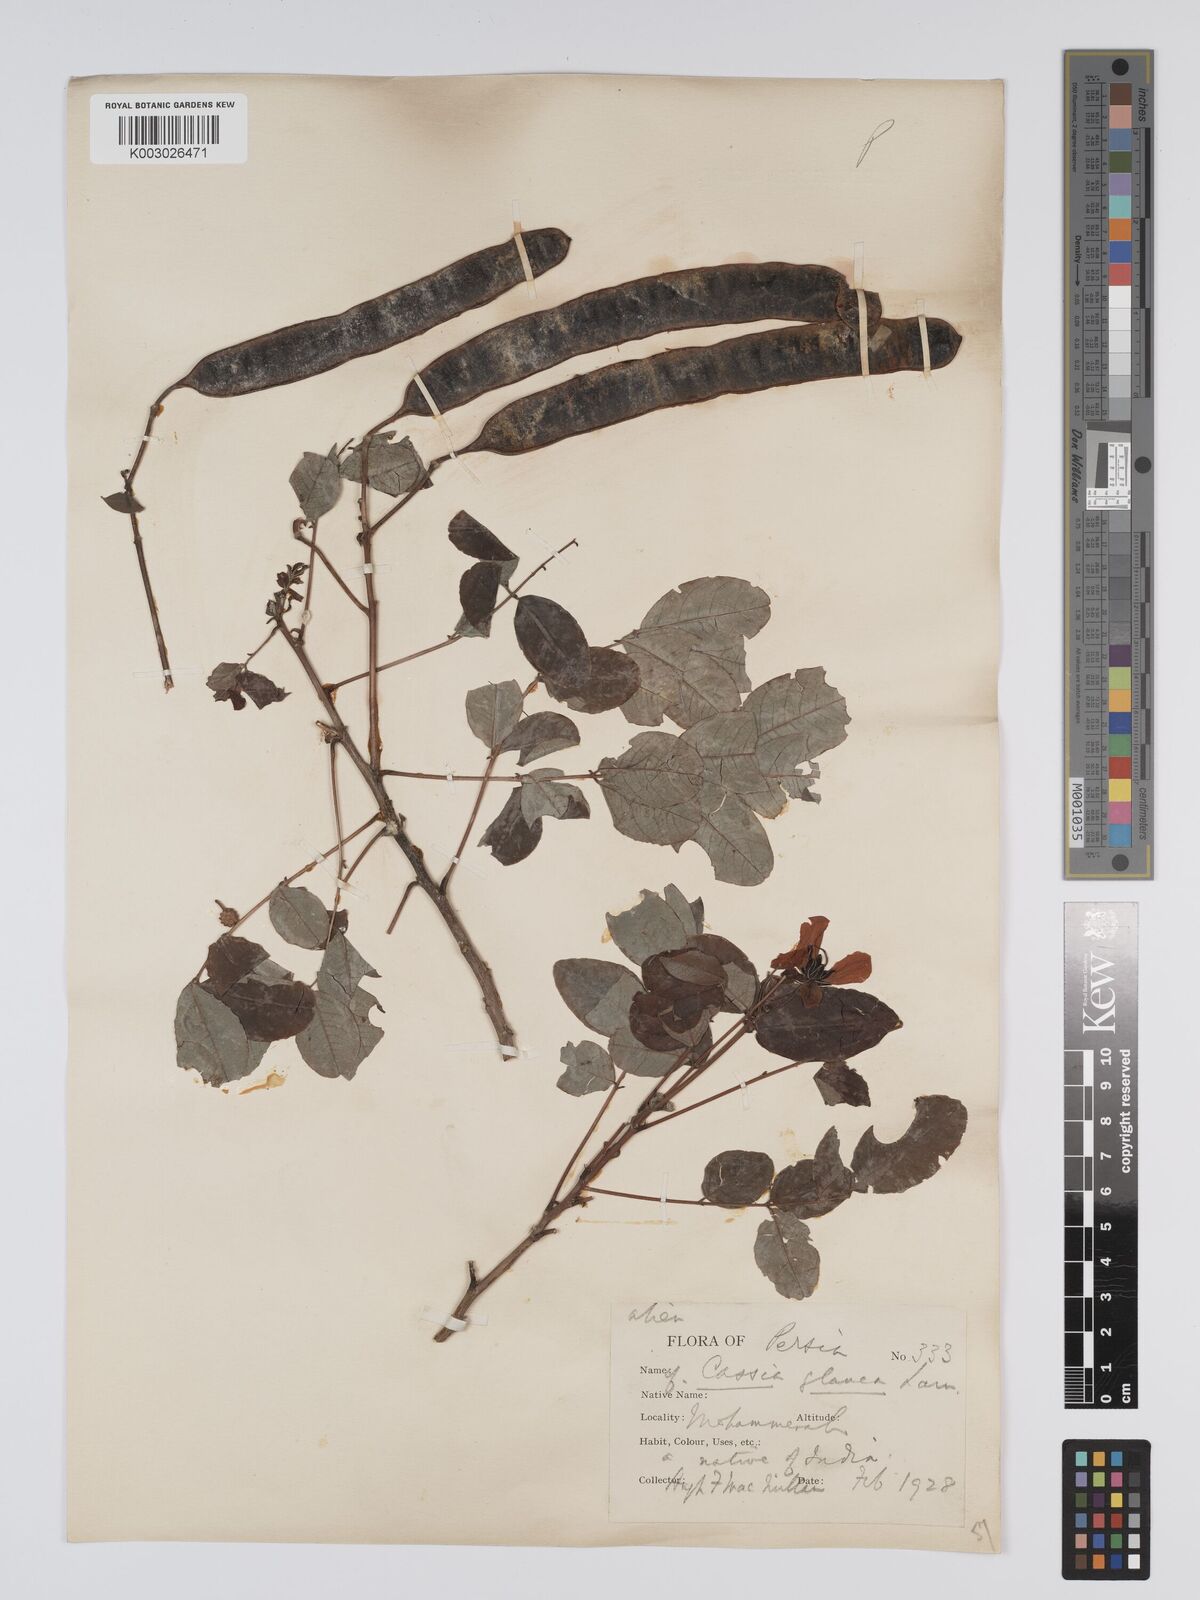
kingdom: Plantae
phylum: Tracheophyta
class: Magnoliopsida
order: Fabales
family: Fabaceae
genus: Senna
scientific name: Senna sulfurea
